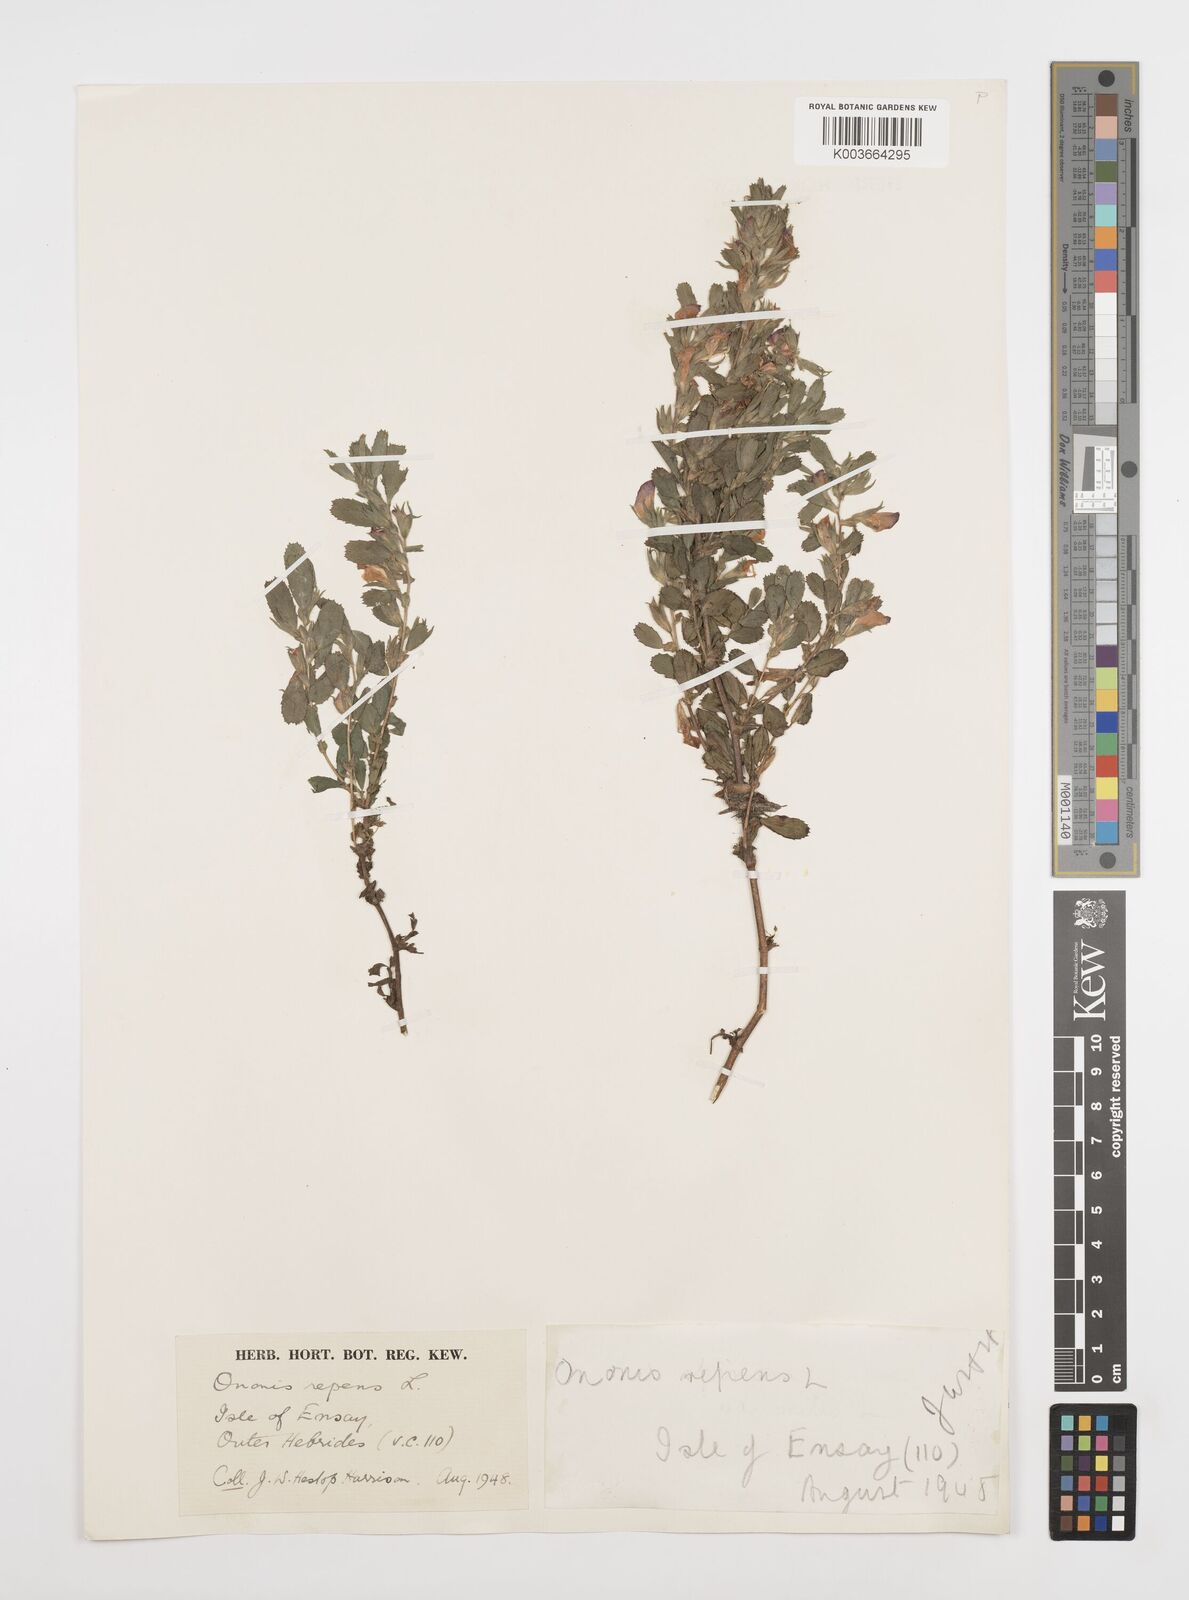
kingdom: Plantae
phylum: Tracheophyta
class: Magnoliopsida
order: Fabales
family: Fabaceae
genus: Ononis
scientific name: Ononis spinosa
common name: Spiny restharrow
